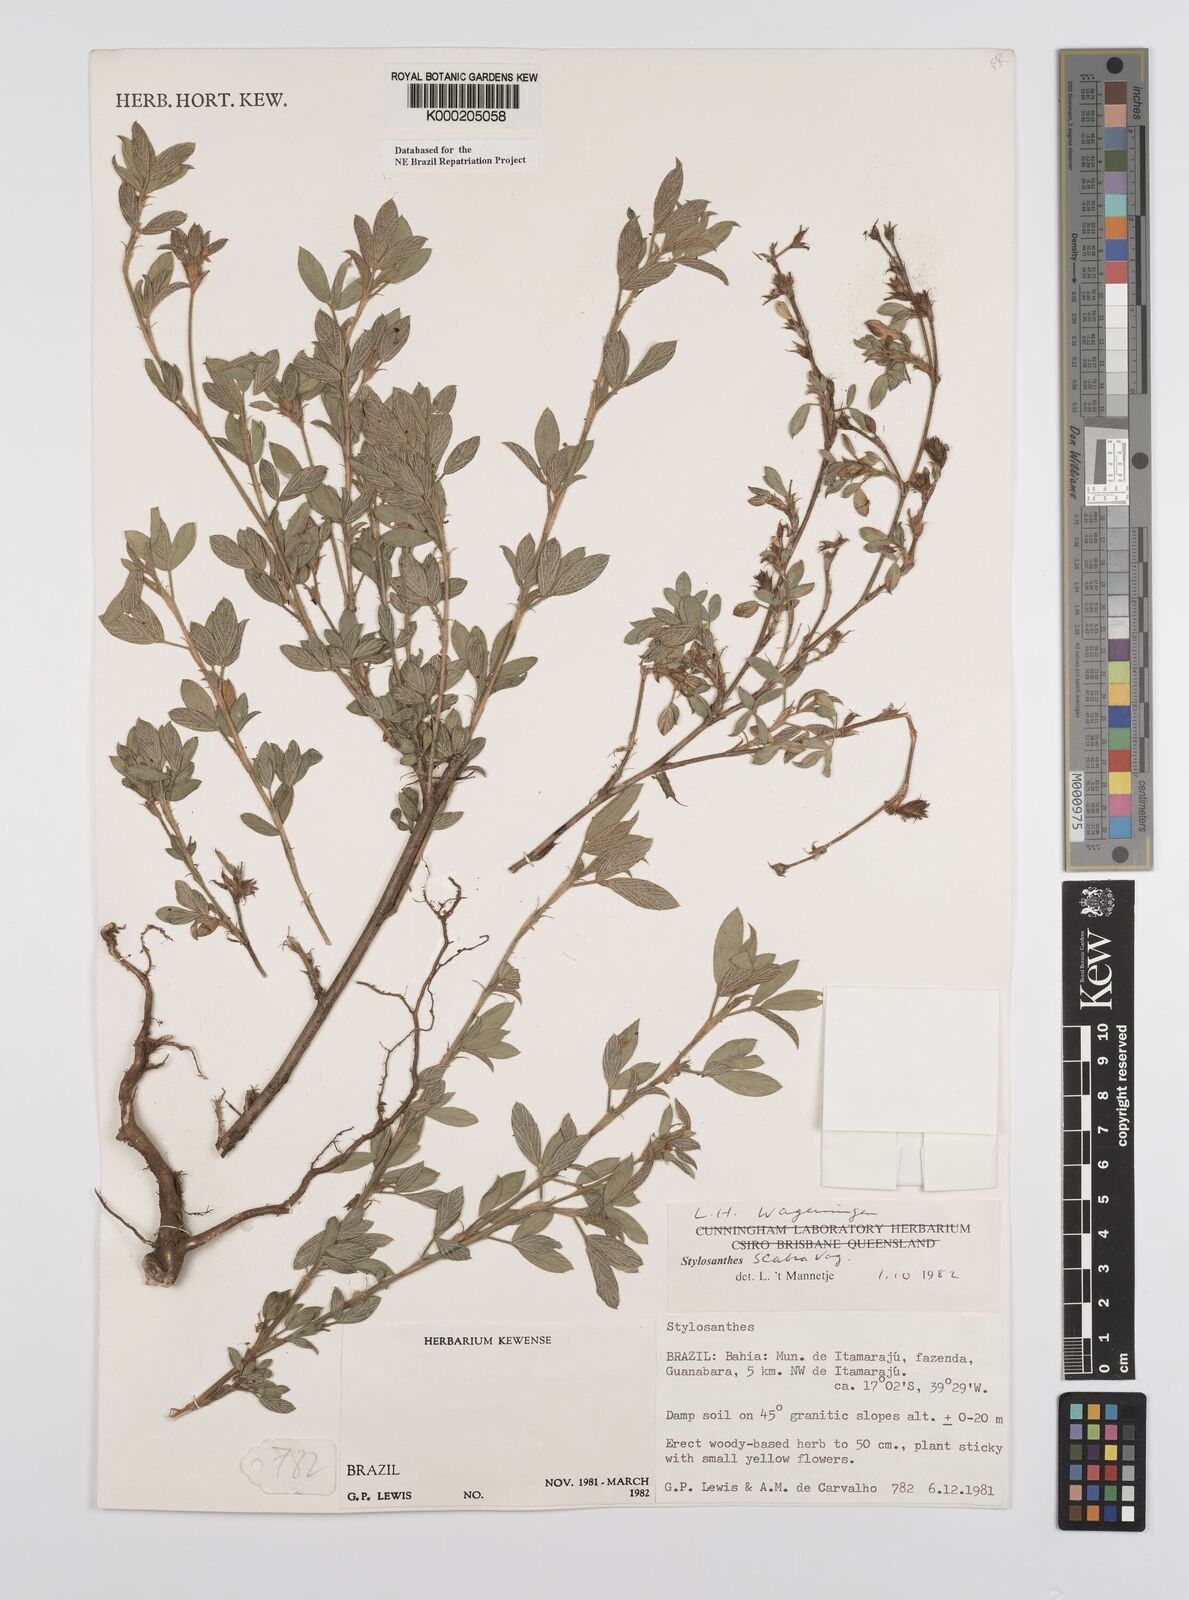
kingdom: Plantae
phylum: Tracheophyta
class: Magnoliopsida
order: Fabales
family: Fabaceae
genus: Stylosanthes
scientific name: Stylosanthes scabra
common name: Pencilflower
